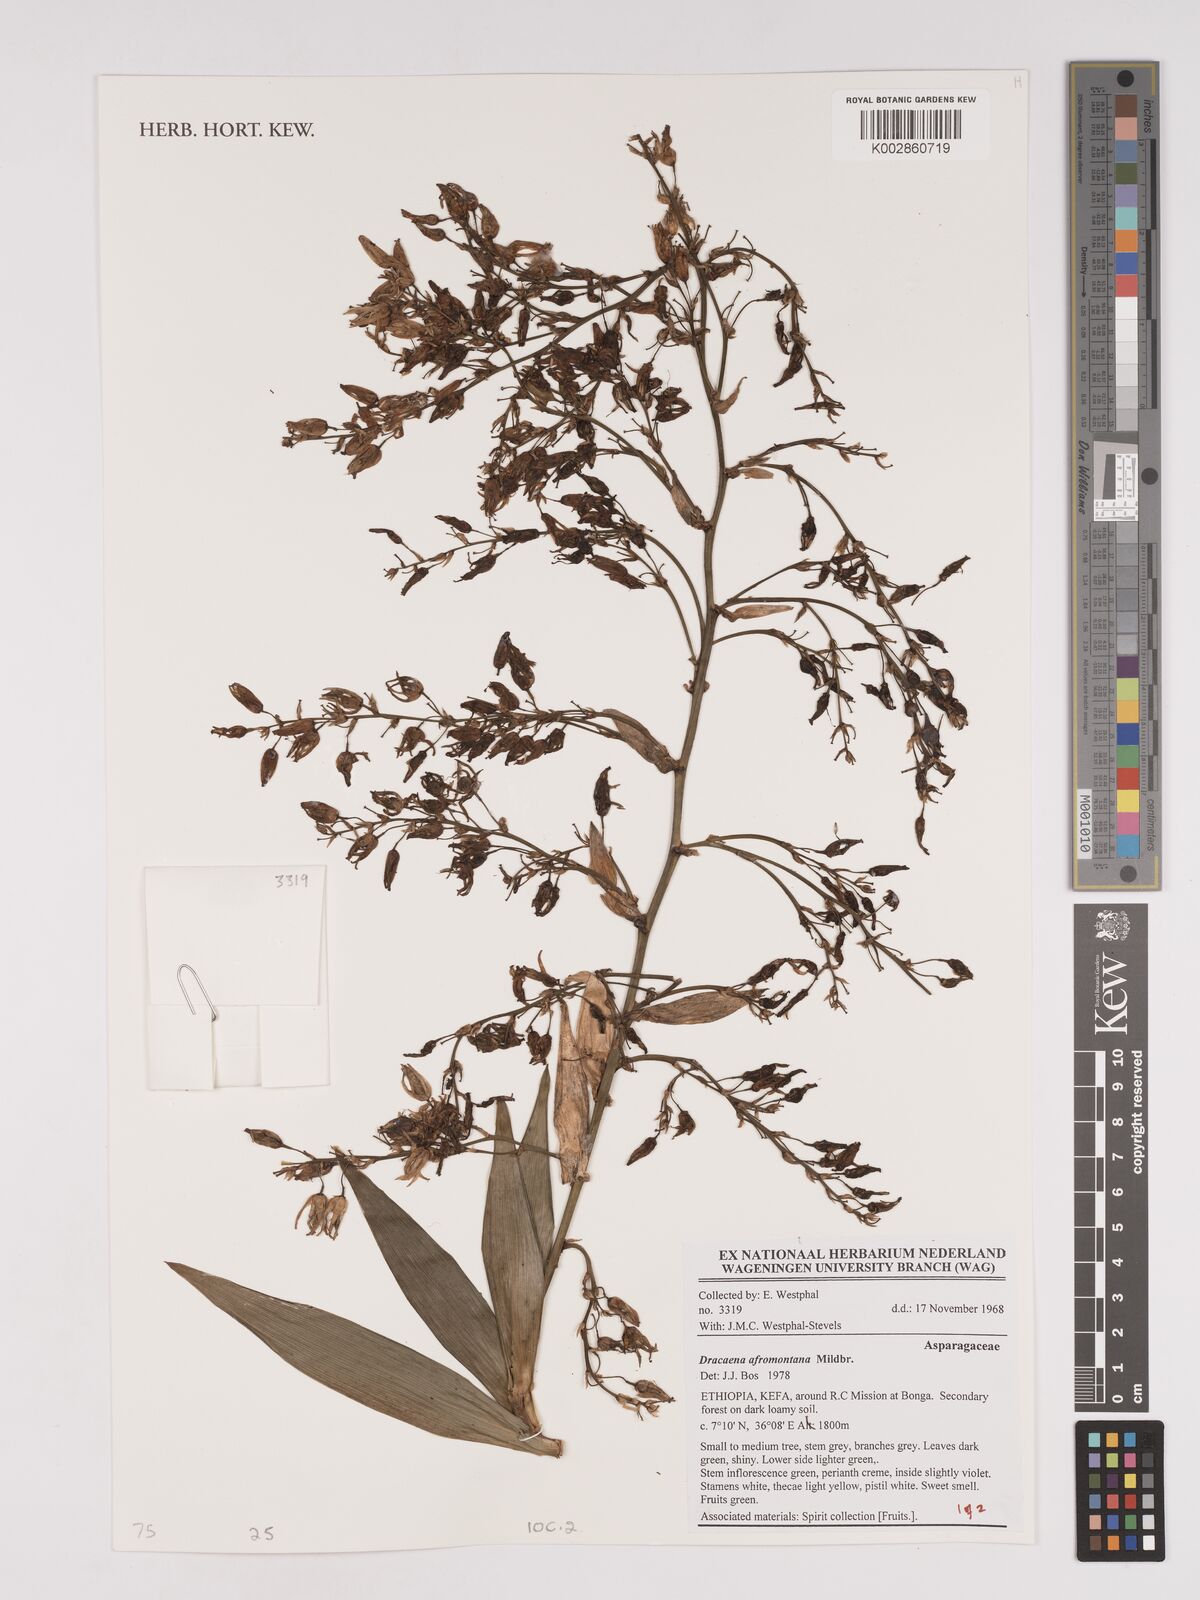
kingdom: Plantae
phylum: Tracheophyta
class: Liliopsida
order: Asparagales
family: Asparagaceae
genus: Dracaena
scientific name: Dracaena afromontana
